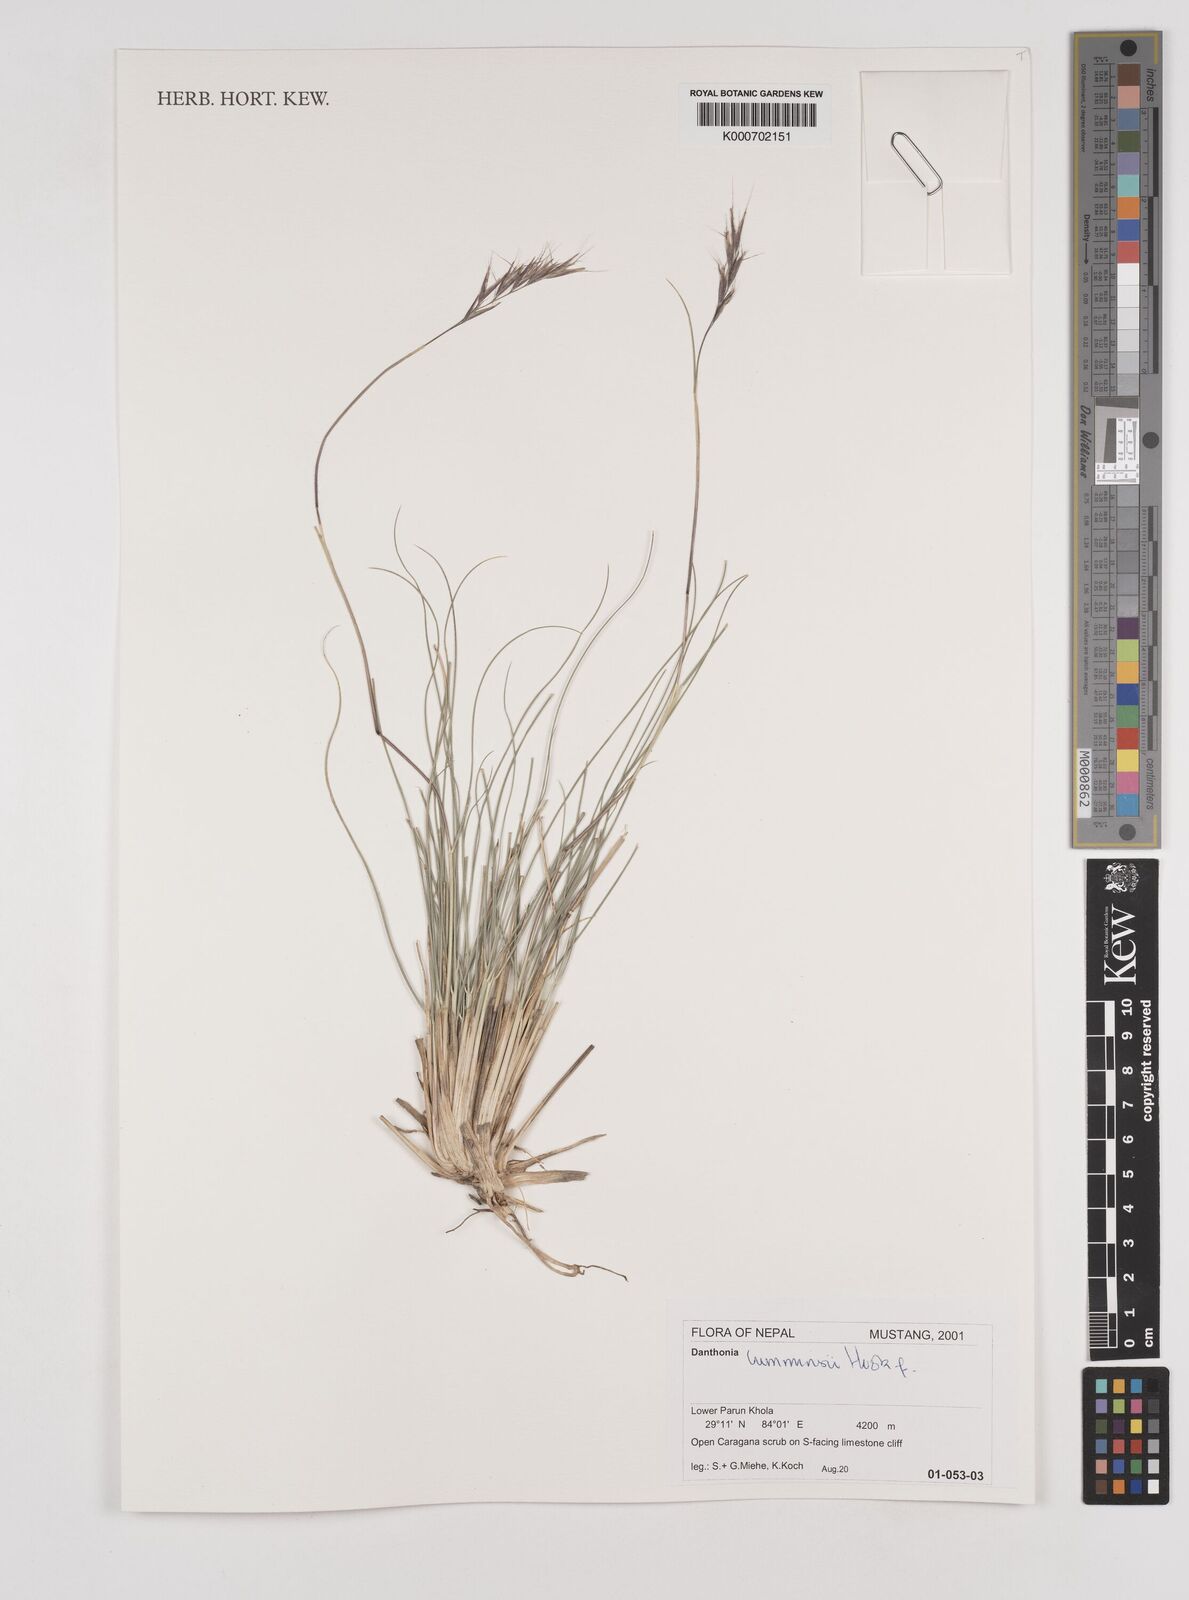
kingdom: Plantae
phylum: Tracheophyta
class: Liliopsida
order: Poales
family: Poaceae
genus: Tenaxia
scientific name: Tenaxia cumminsii
